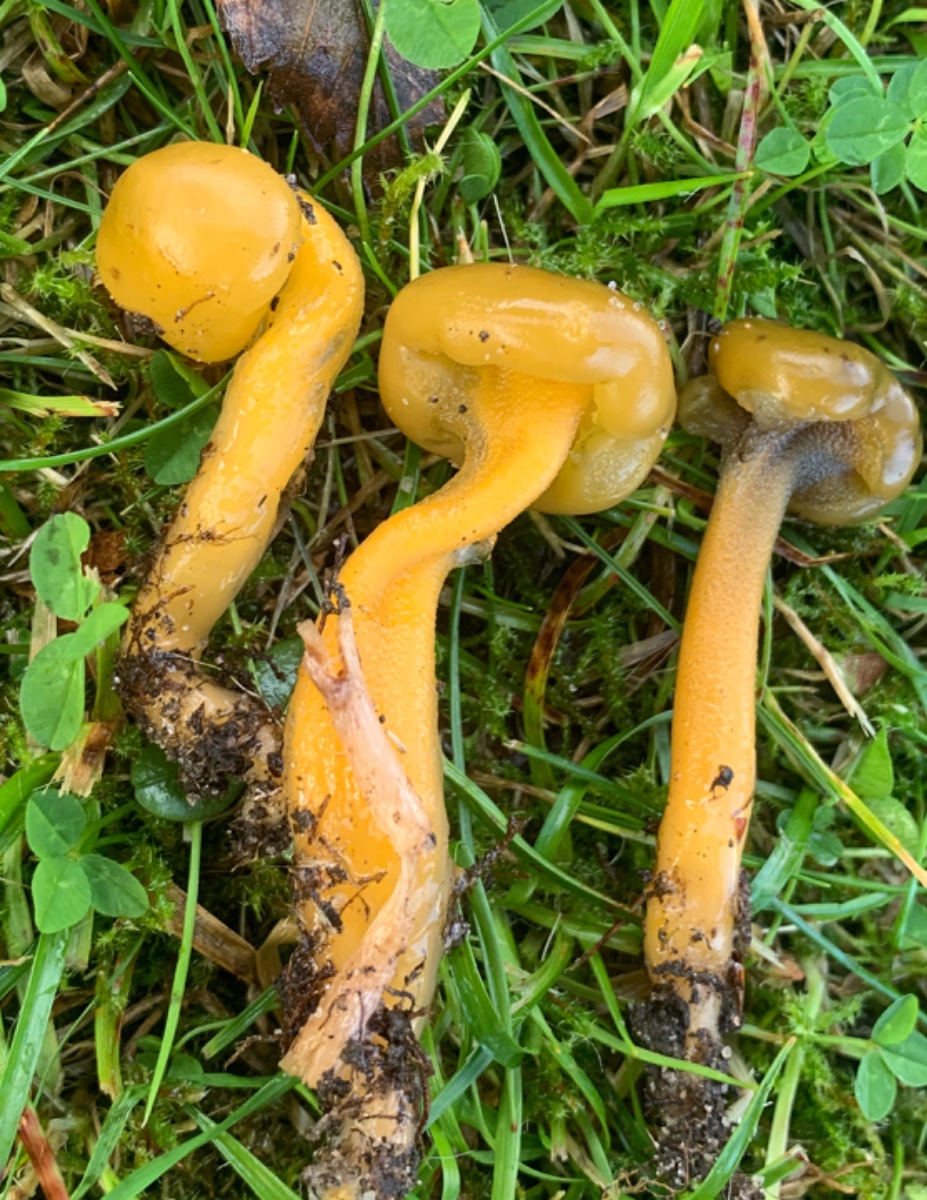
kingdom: Fungi
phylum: Ascomycota
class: Leotiomycetes
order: Leotiales
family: Leotiaceae
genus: Leotia
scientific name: Leotia lubrica
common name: ravsvamp
